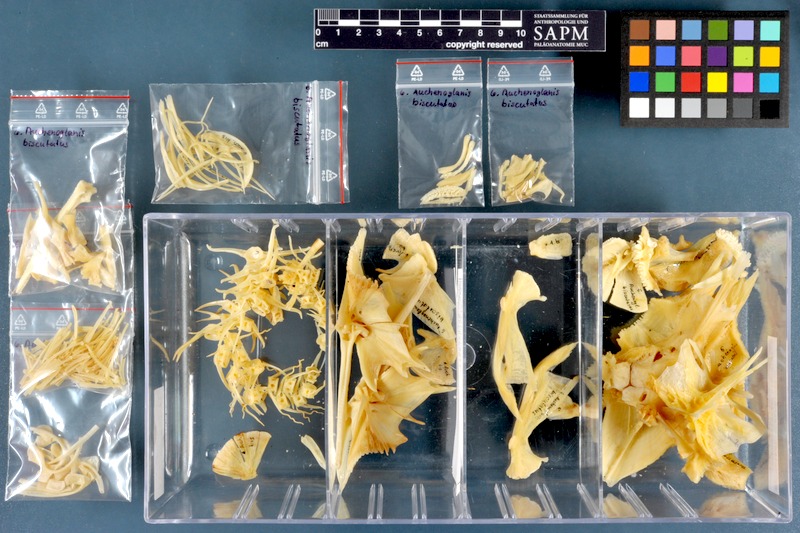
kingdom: Animalia
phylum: Chordata
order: Siluriformes
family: Claroteidae
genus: Auchenoglanis
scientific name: Auchenoglanis biscutatus
